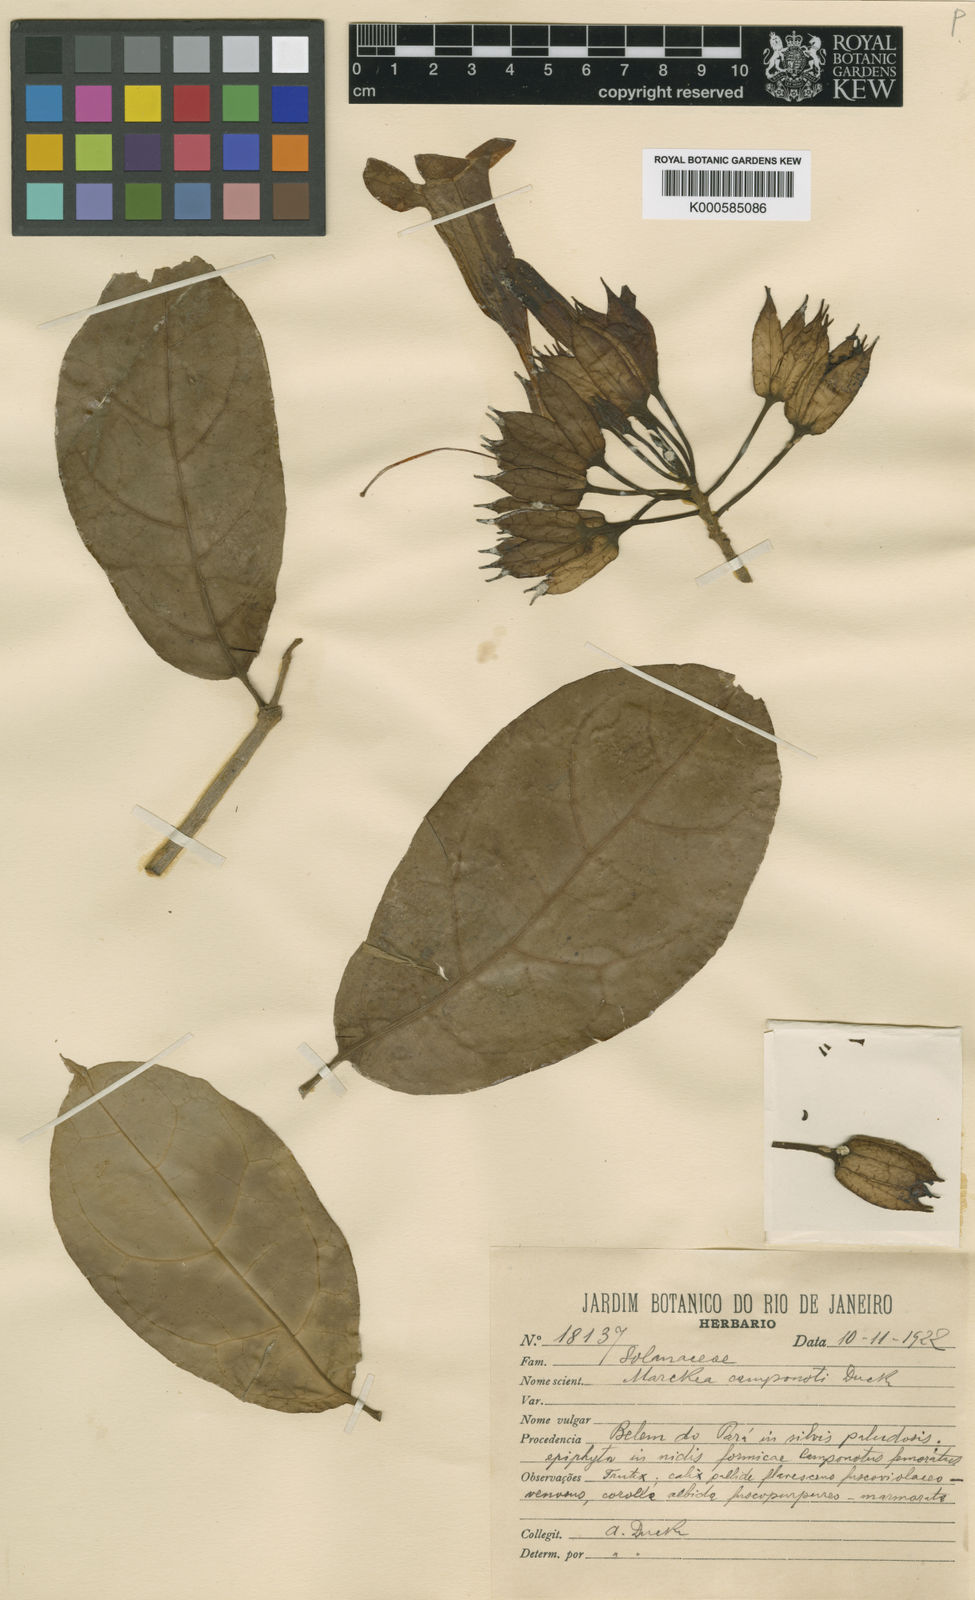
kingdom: Plantae
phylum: Tracheophyta
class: Magnoliopsida
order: Solanales
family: Solanaceae
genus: Markea
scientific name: Markea longiflora
